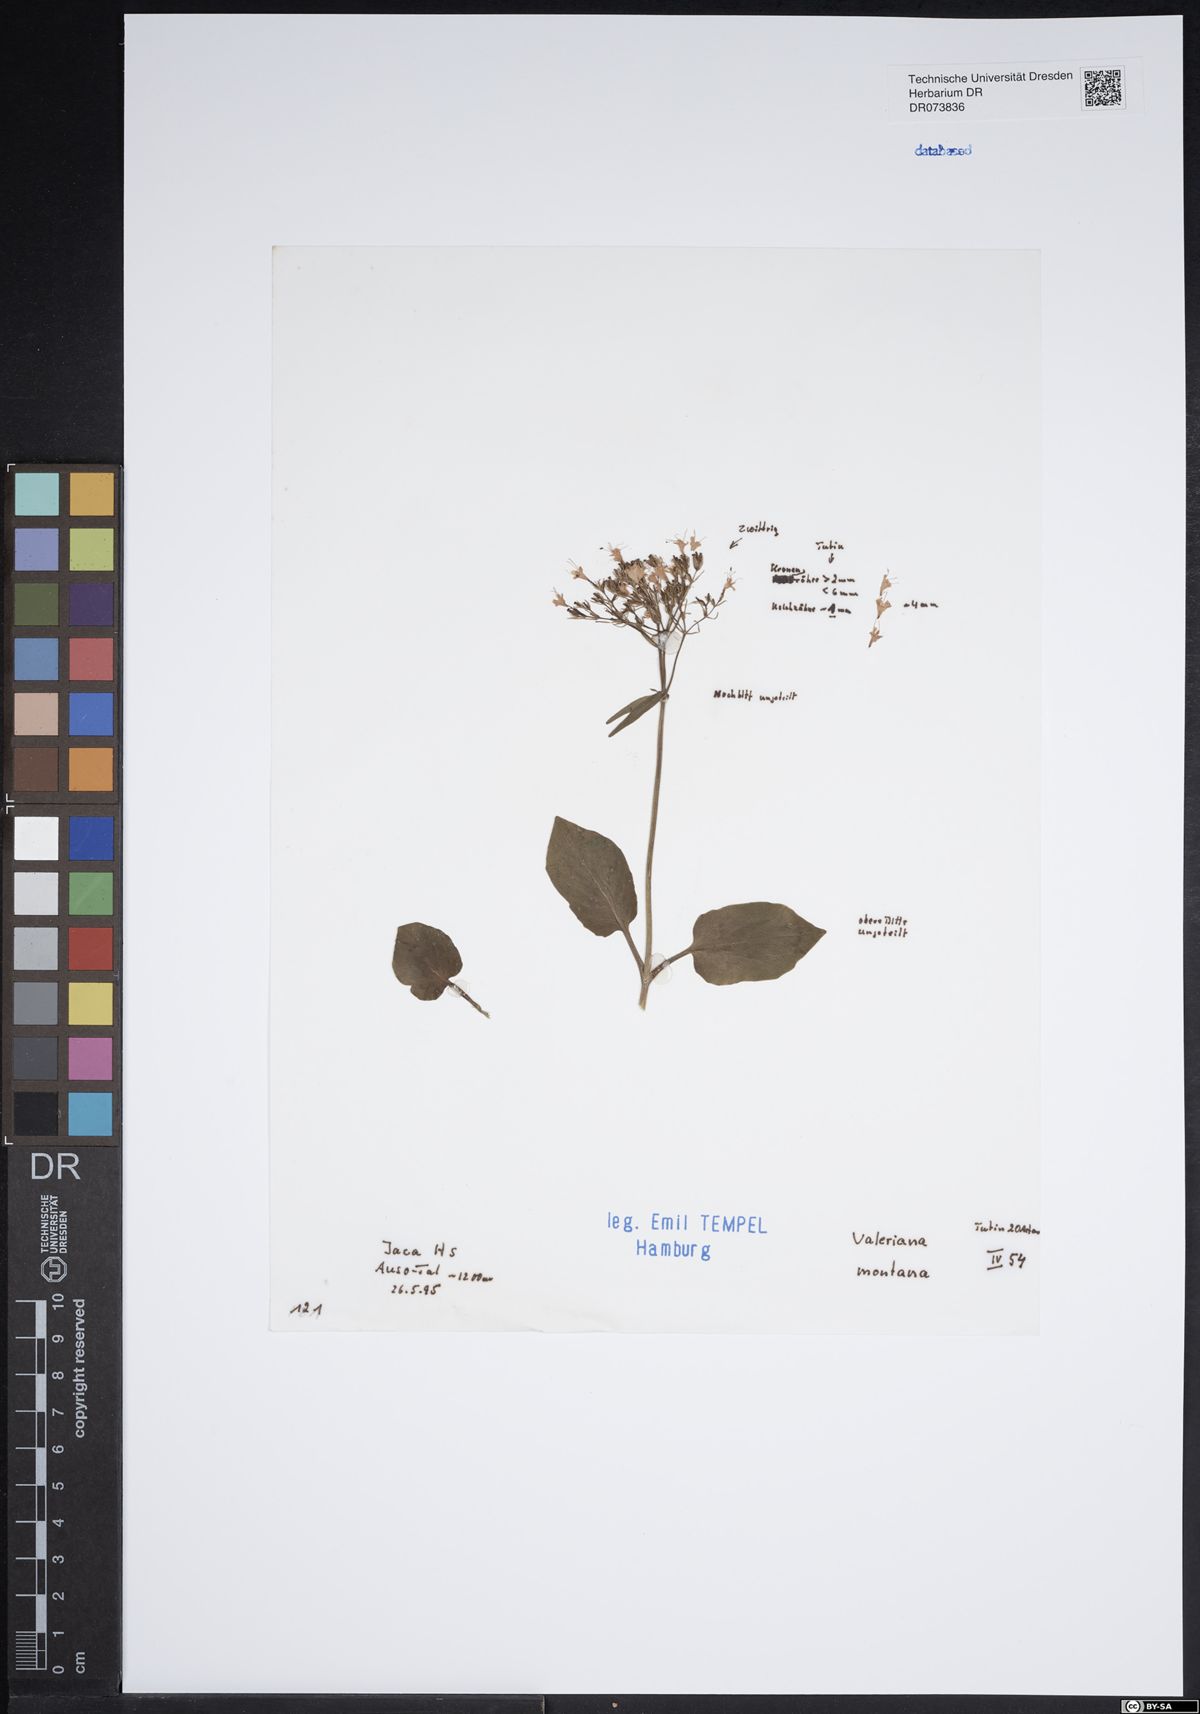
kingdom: Plantae
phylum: Tracheophyta
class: Magnoliopsida
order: Dipsacales
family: Caprifoliaceae
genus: Valeriana
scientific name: Valeriana montana
